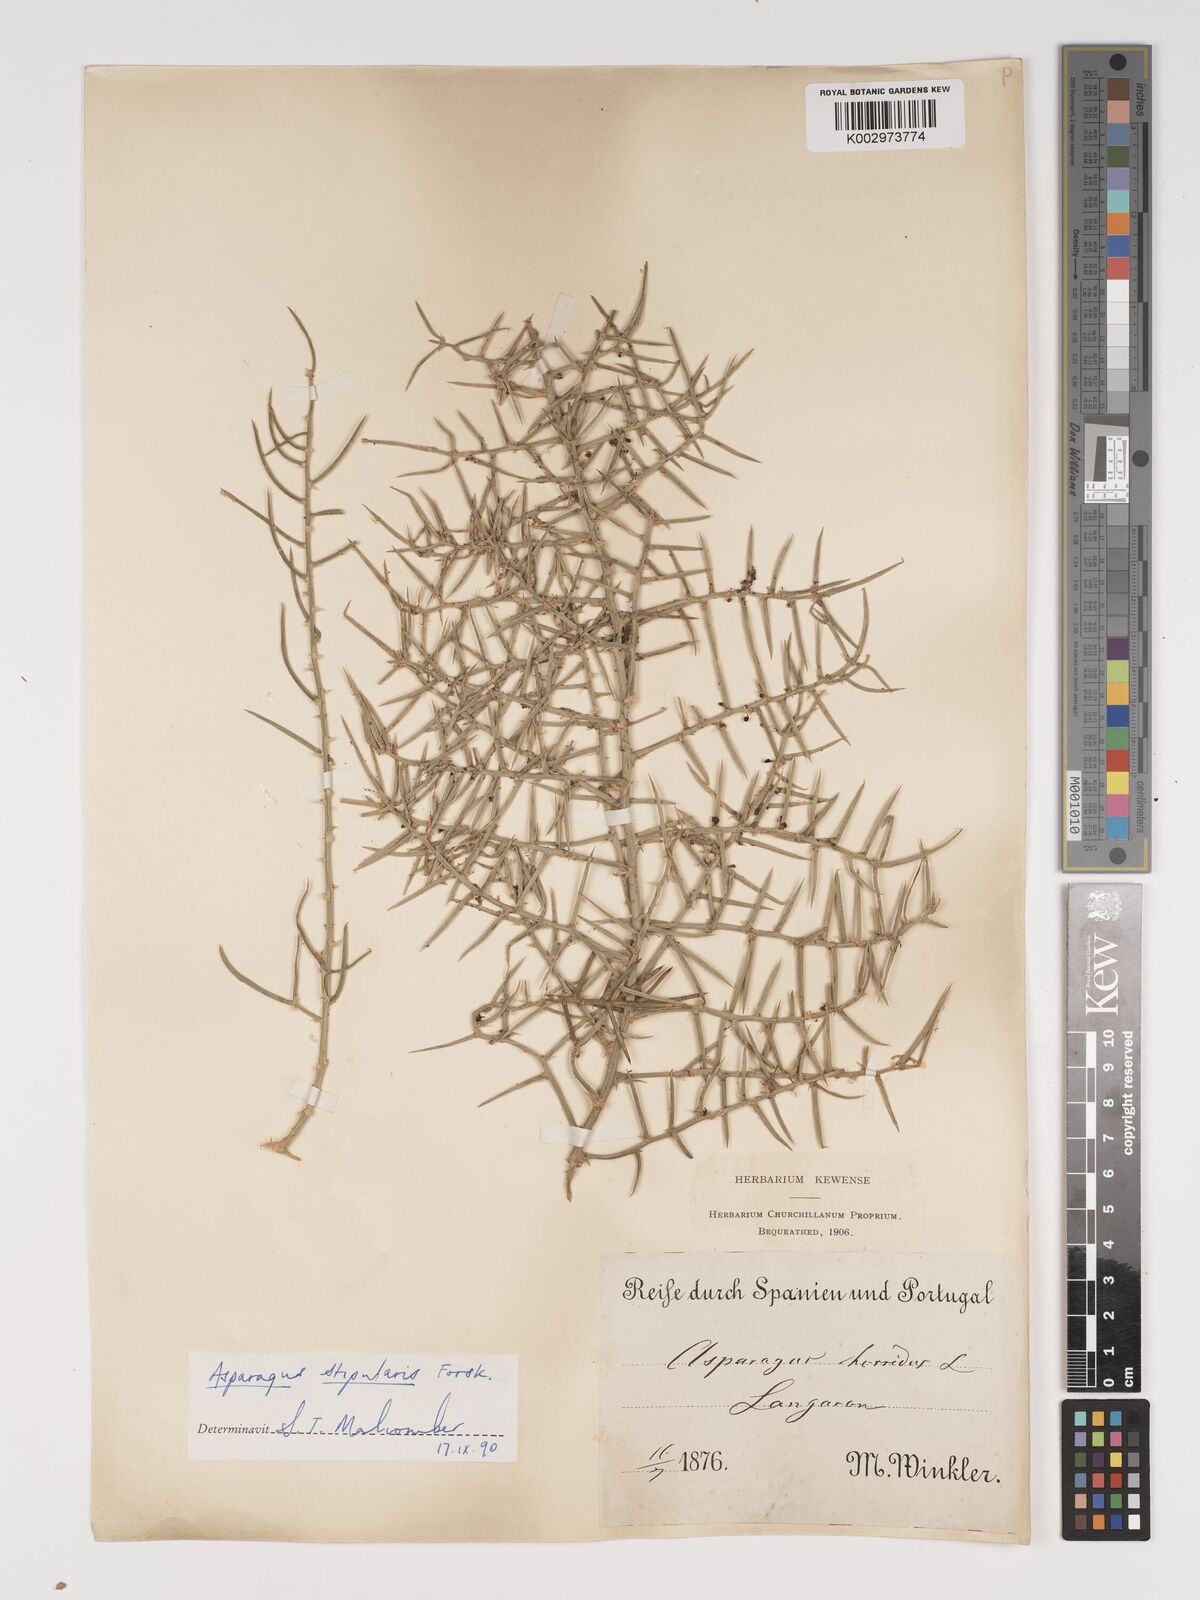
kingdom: Plantae
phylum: Tracheophyta
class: Liliopsida
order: Asparagales
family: Asparagaceae
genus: Asparagus
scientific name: Asparagus horridus
